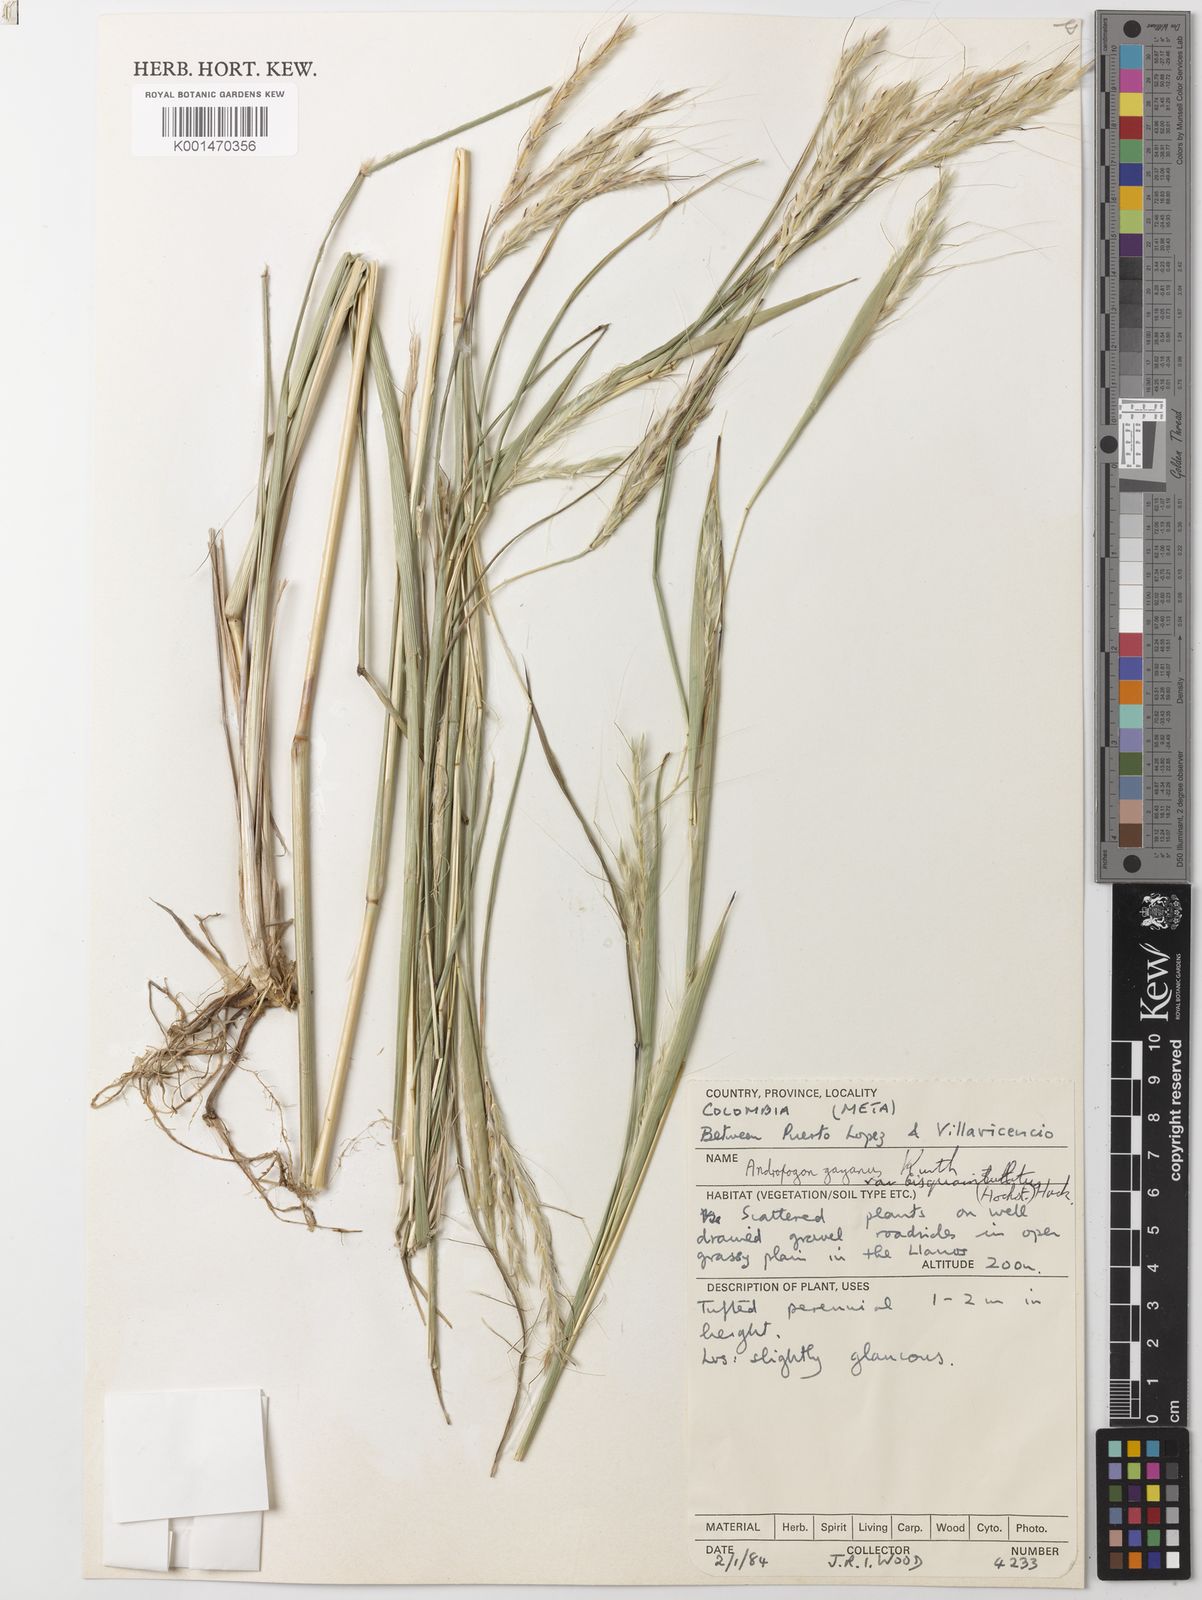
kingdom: Plantae
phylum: Tracheophyta
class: Liliopsida
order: Poales
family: Poaceae
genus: Andropogon
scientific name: Andropogon gayanus
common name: Tambuki grass
